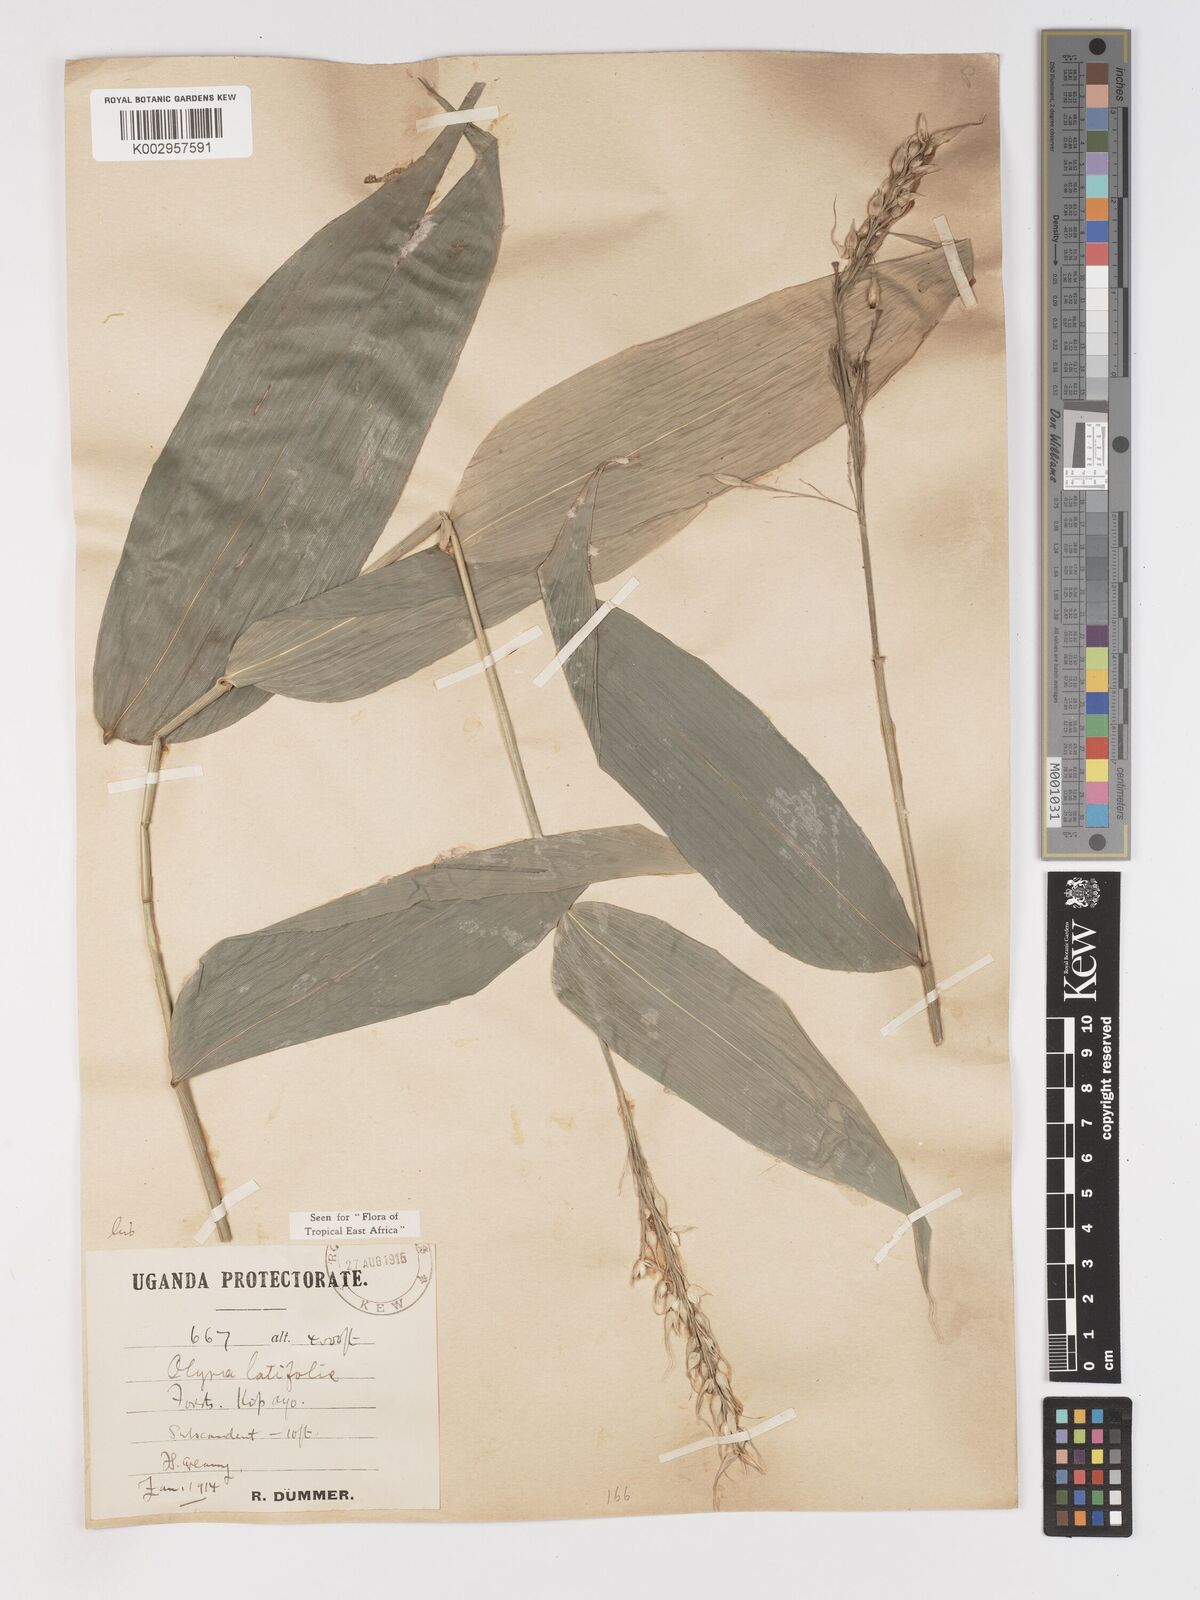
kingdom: Plantae
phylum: Tracheophyta
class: Liliopsida
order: Poales
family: Poaceae
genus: Olyra
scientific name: Olyra latifolia
